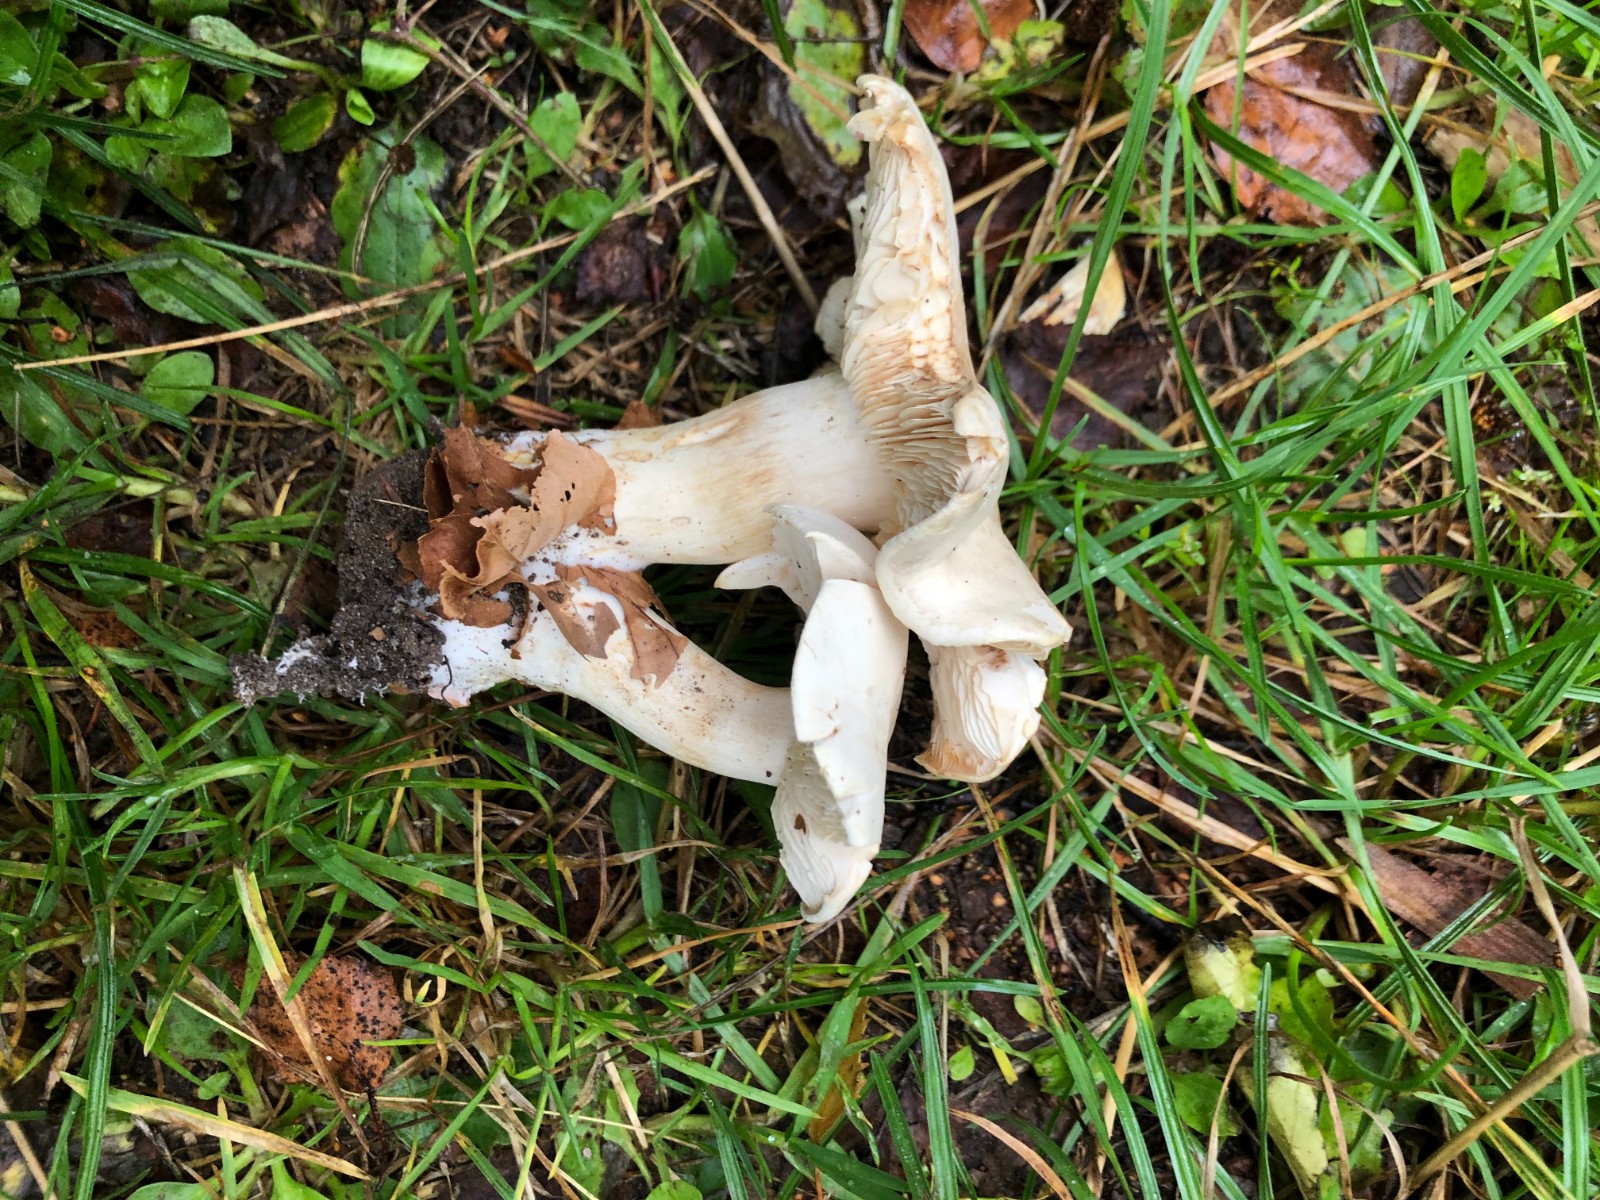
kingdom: Fungi
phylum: Basidiomycota
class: Agaricomycetes
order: Agaricales
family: Tricholomataceae
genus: Tricholoma
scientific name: Tricholoma lascivum
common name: stinkende ridderhat
